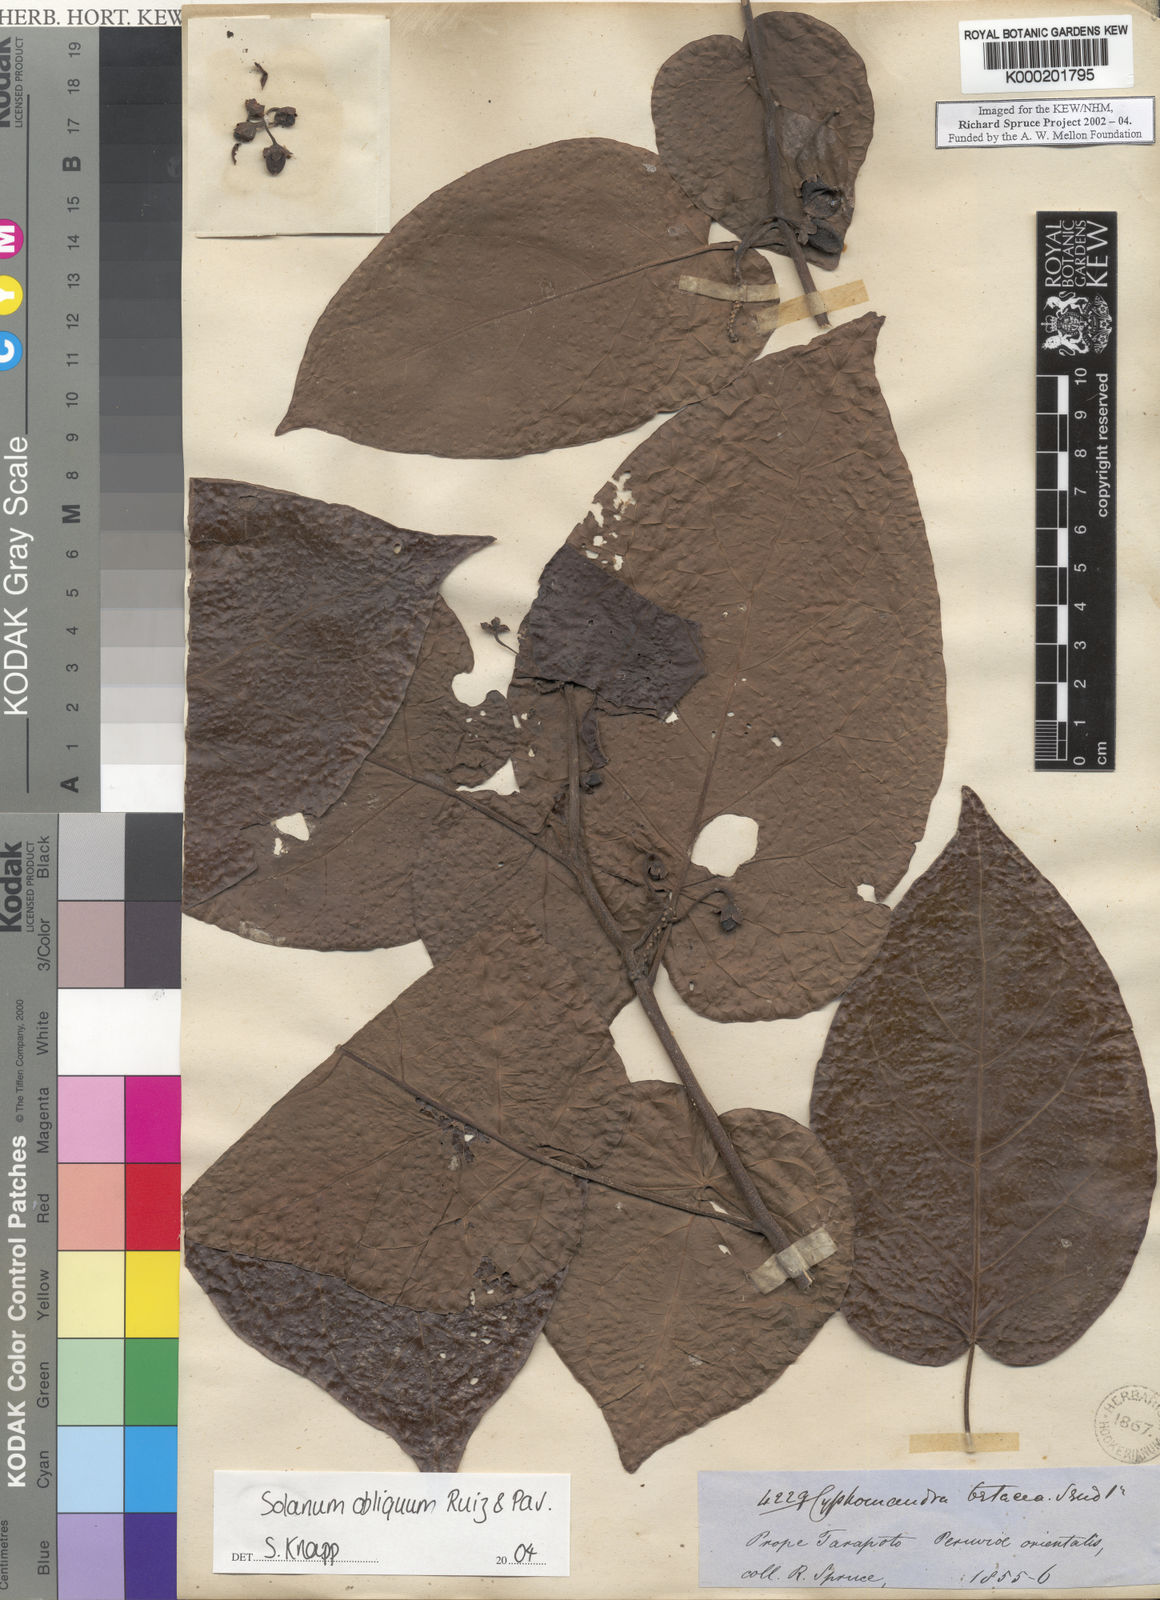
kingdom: Plantae
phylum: Tracheophyta
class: Magnoliopsida
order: Solanales
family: Solanaceae
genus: Solanum
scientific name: Solanum obliquum
